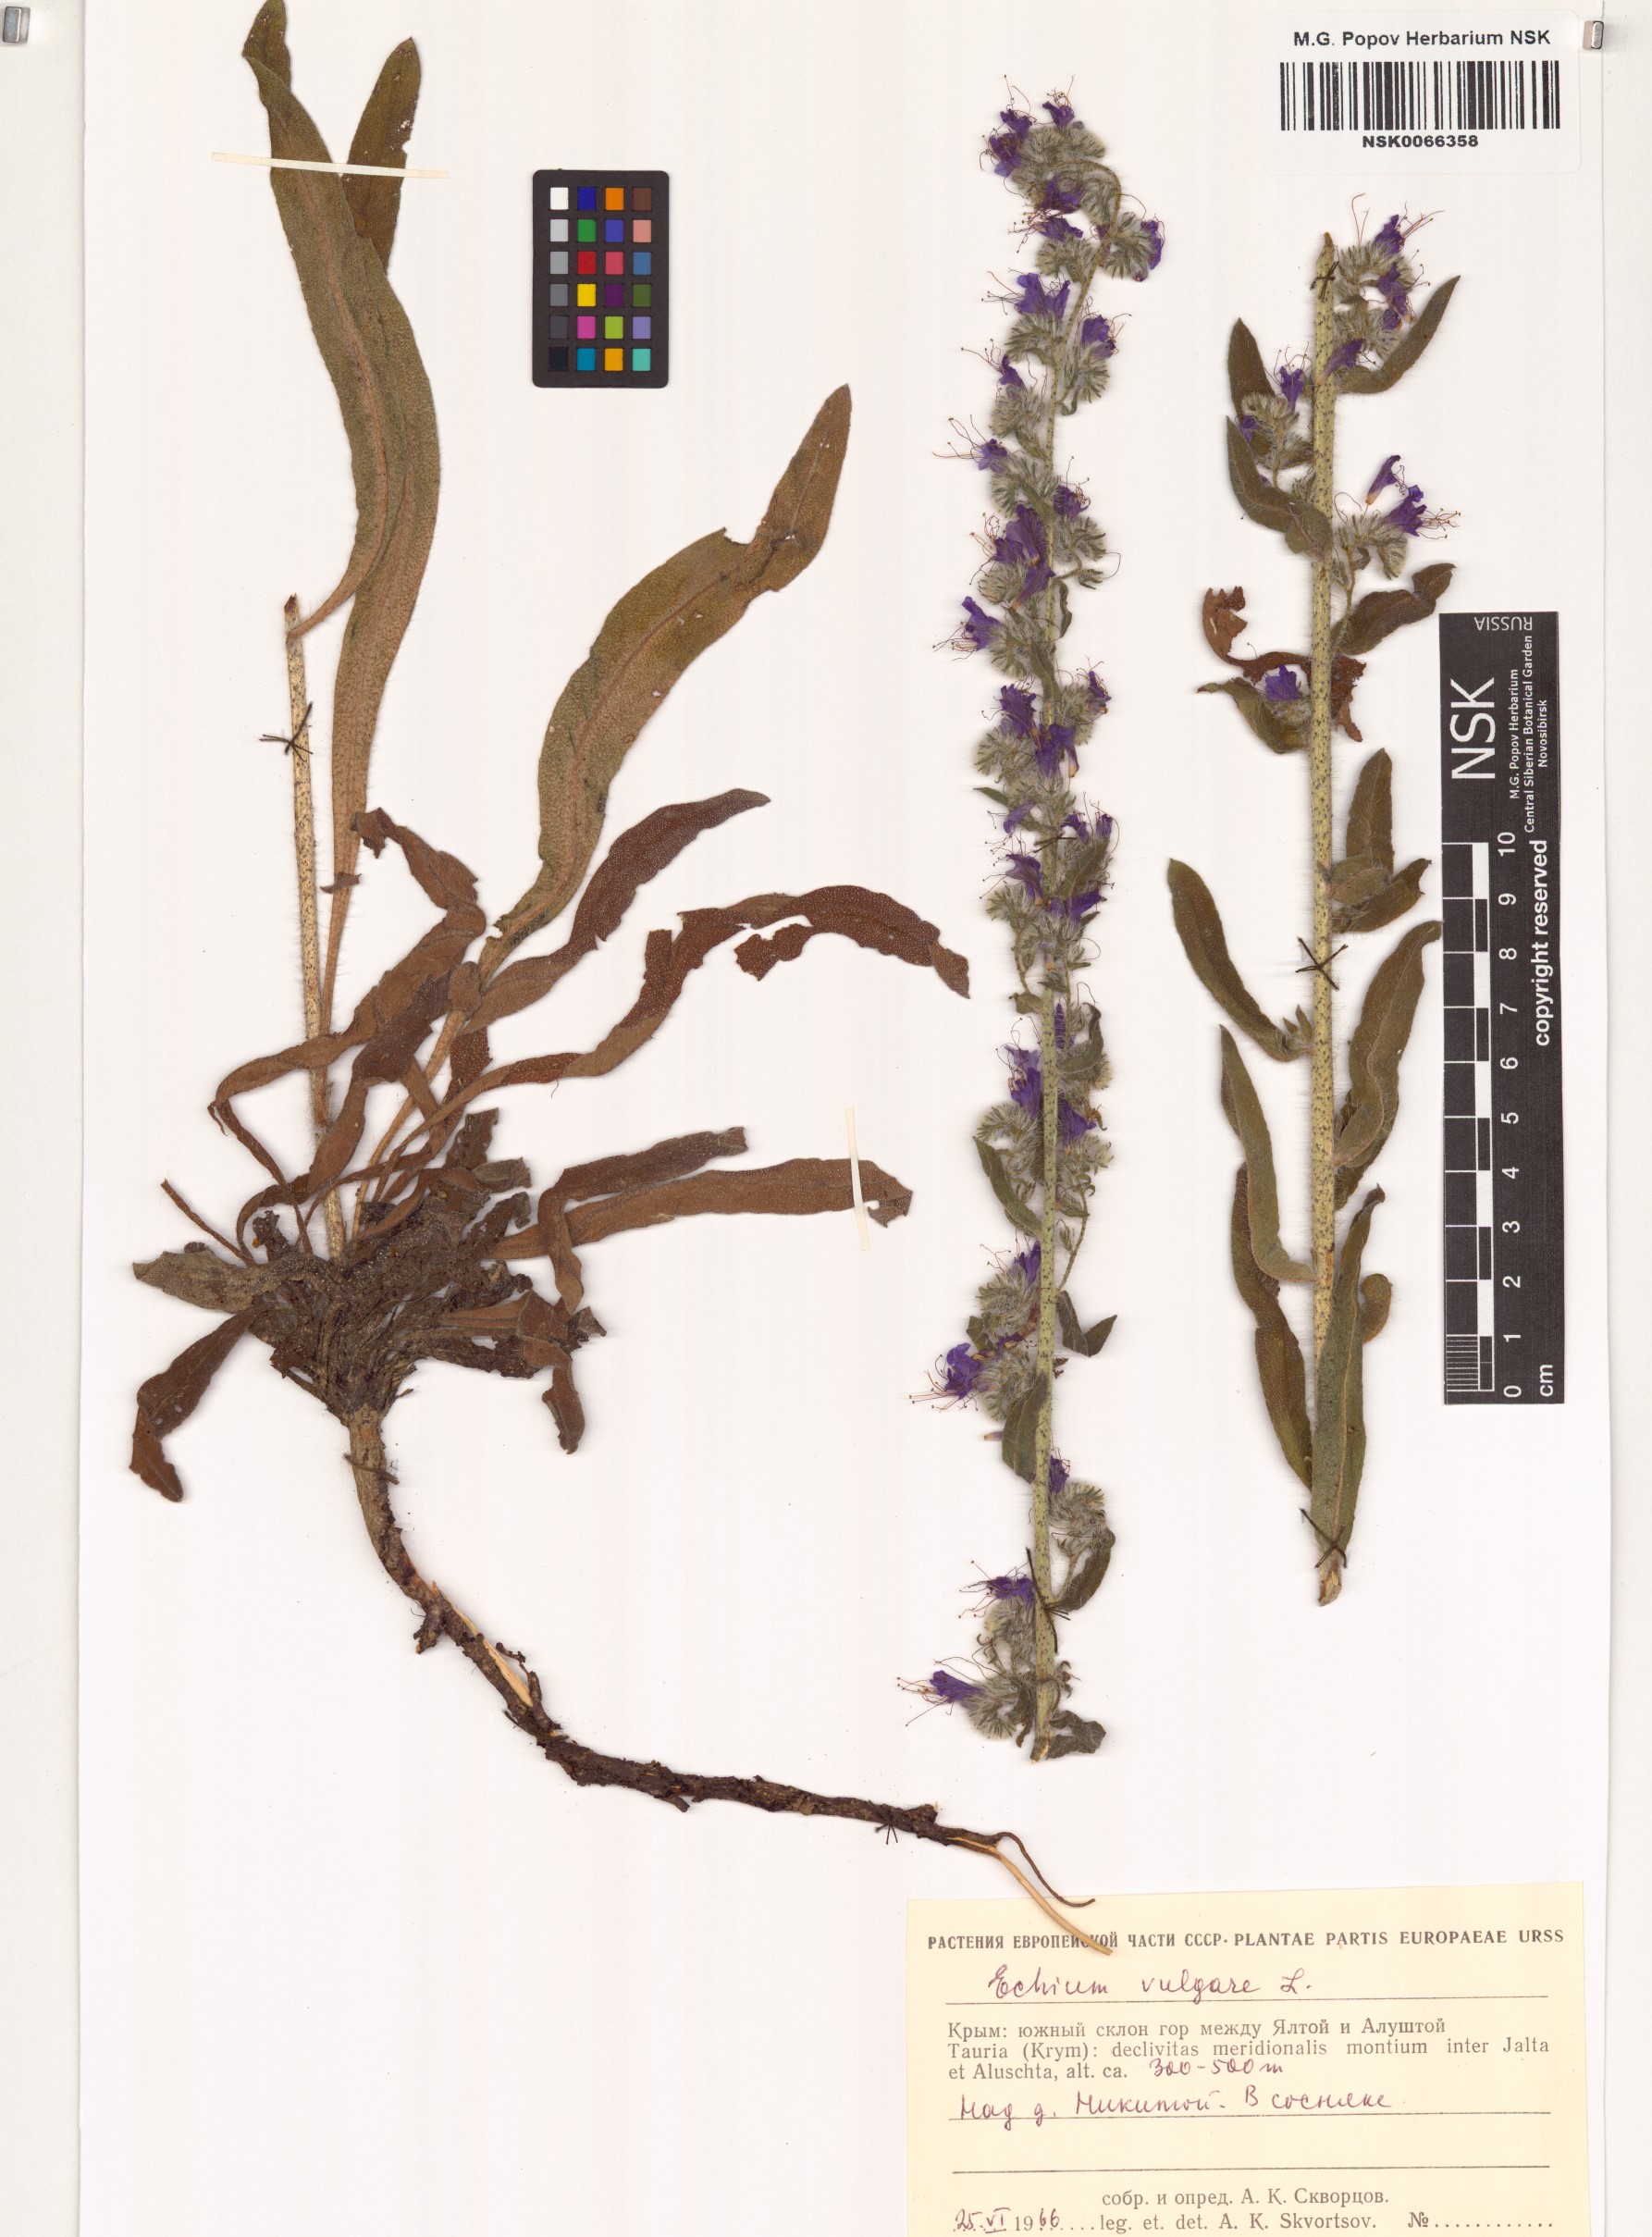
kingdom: Plantae
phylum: Tracheophyta
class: Magnoliopsida
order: Boraginales
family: Boraginaceae
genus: Echium
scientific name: Echium vulgare
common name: Common viper's bugloss
